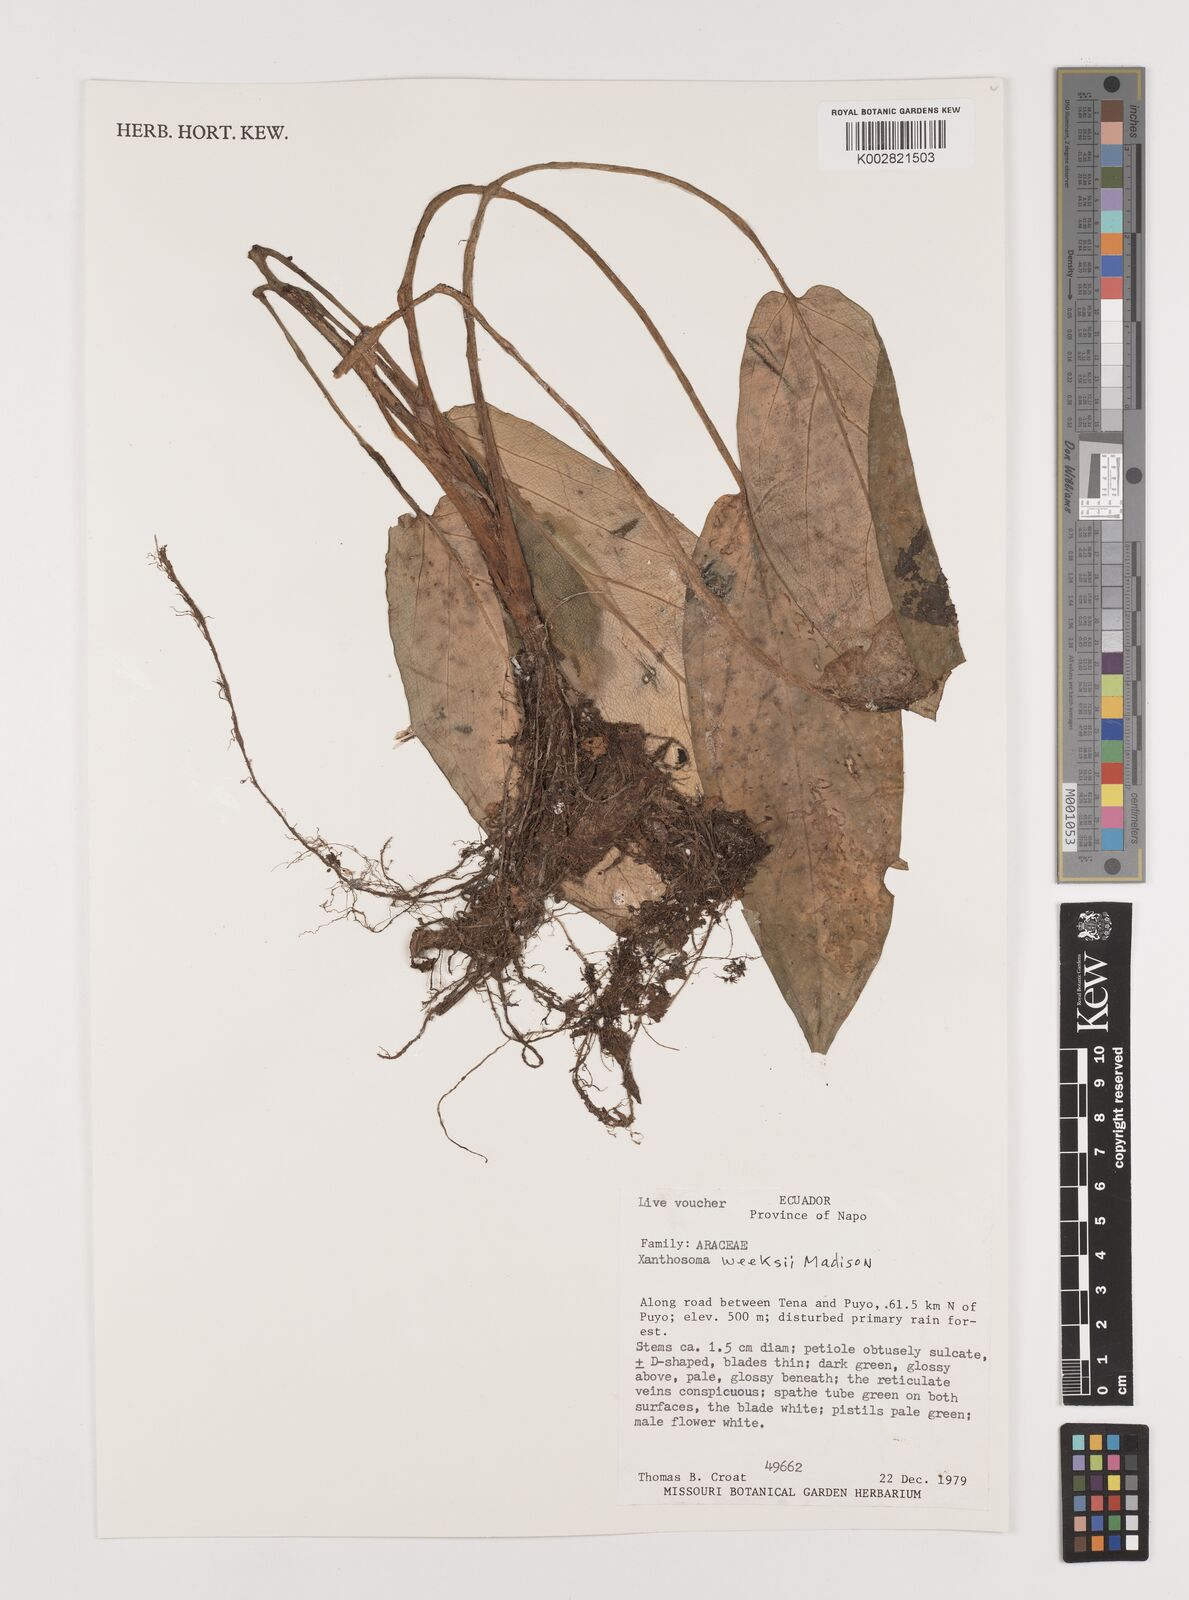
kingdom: Plantae
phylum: Tracheophyta
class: Liliopsida
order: Alismatales
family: Araceae
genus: Xanthosoma
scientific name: Xanthosoma weeksii
